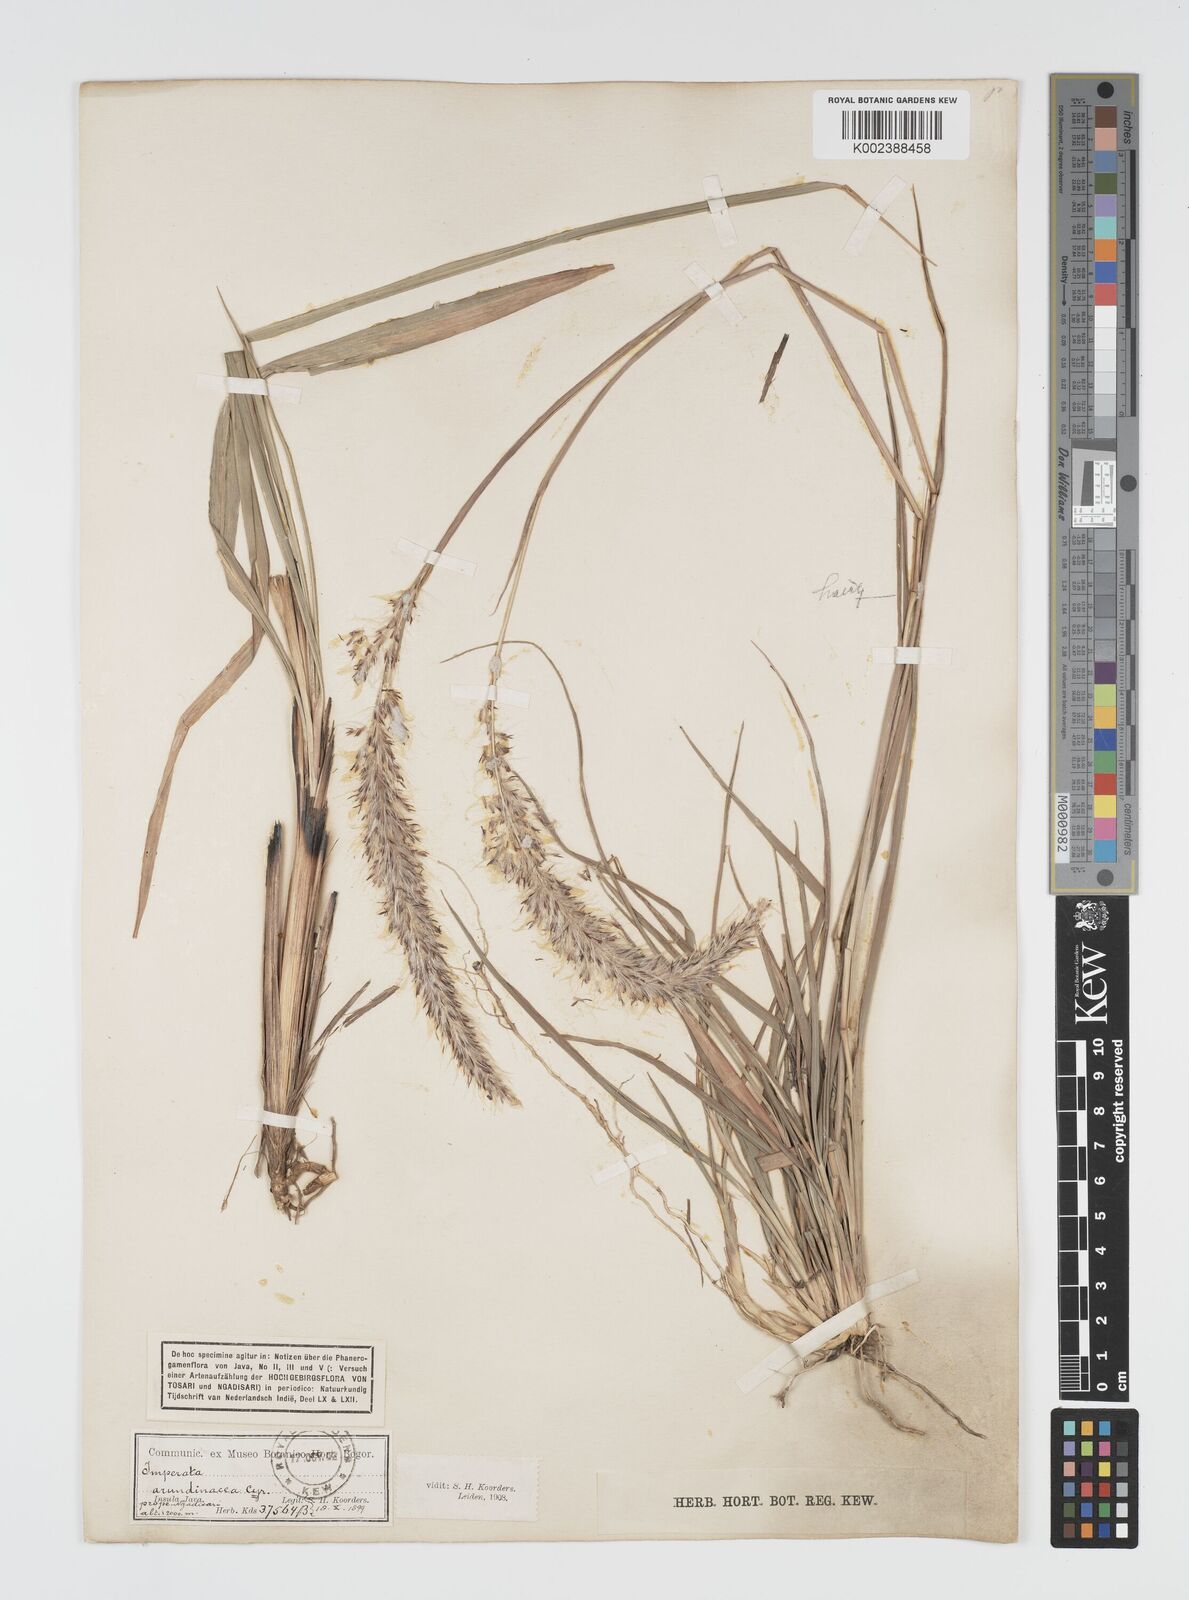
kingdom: Plantae
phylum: Tracheophyta
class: Liliopsida
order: Poales
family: Poaceae
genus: Imperata
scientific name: Imperata
